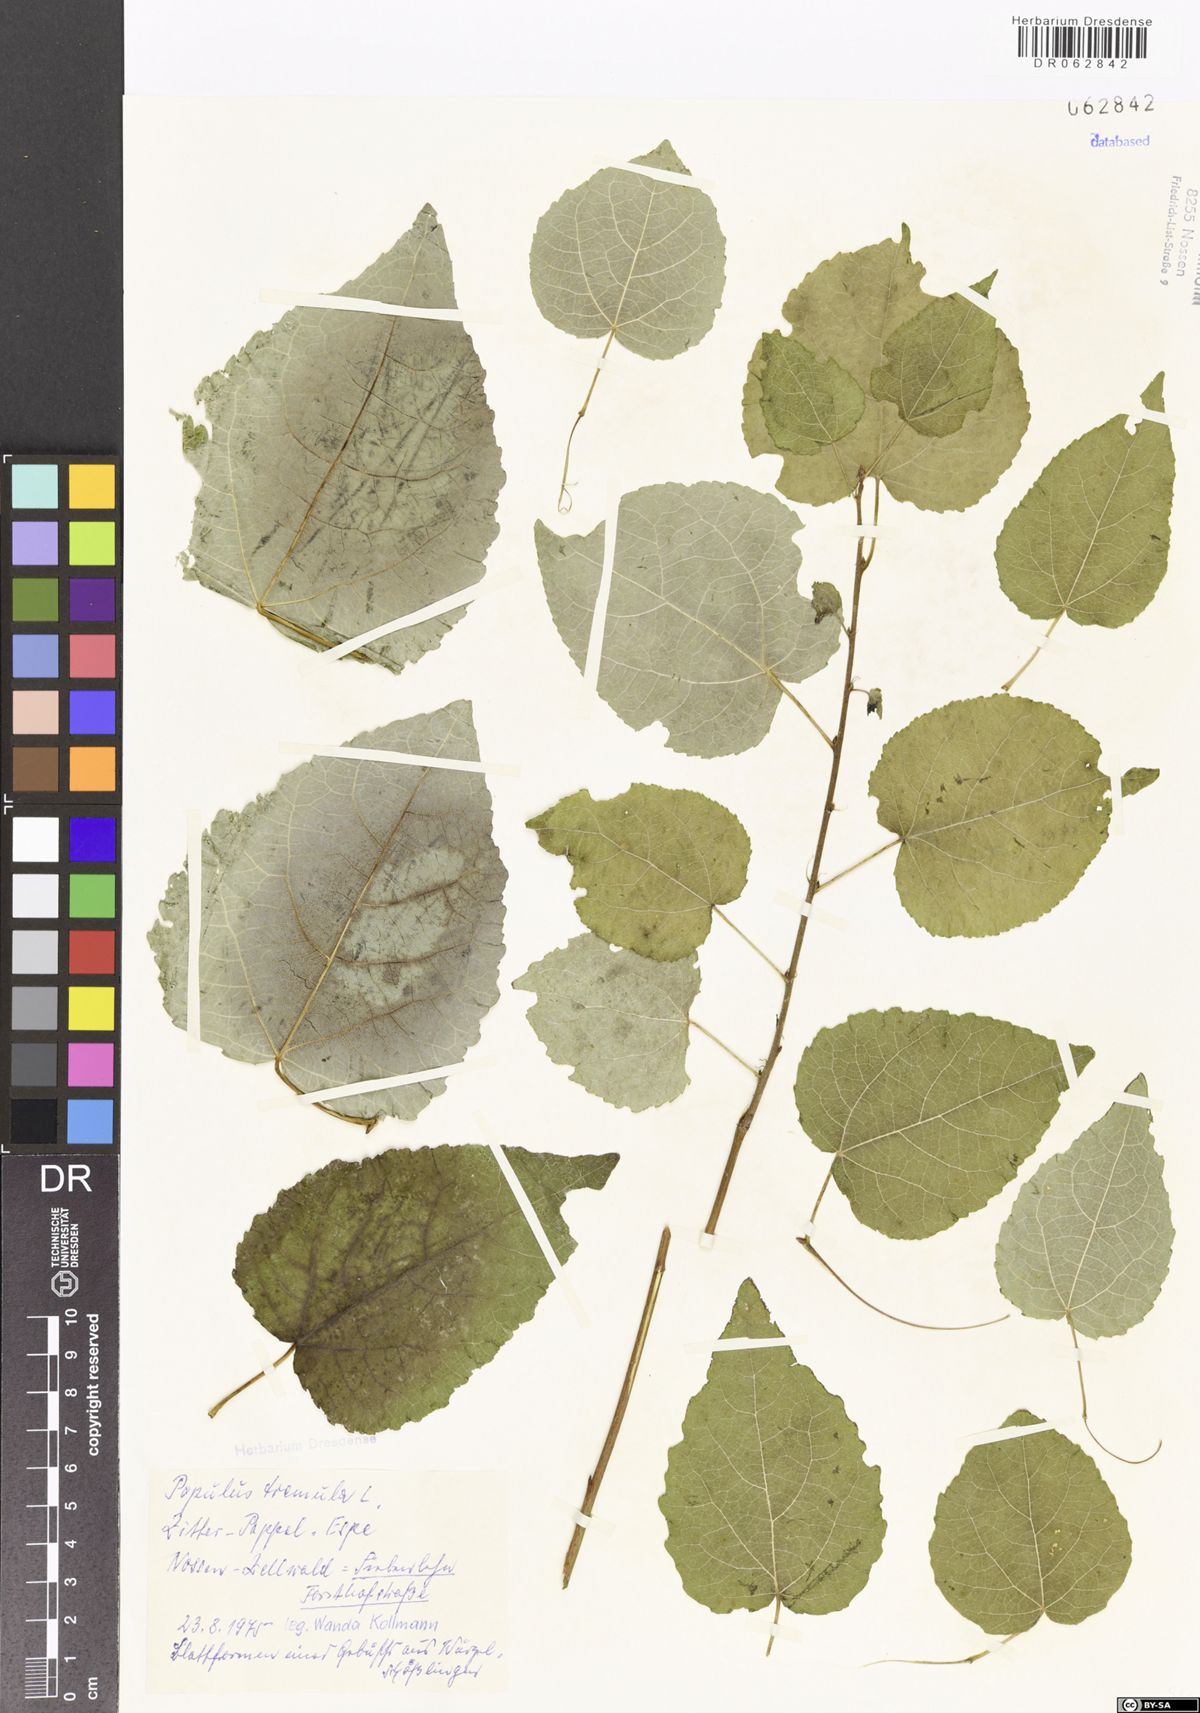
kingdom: Plantae
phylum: Tracheophyta
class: Magnoliopsida
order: Malpighiales
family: Salicaceae
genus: Populus
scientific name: Populus tremula
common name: European aspen
